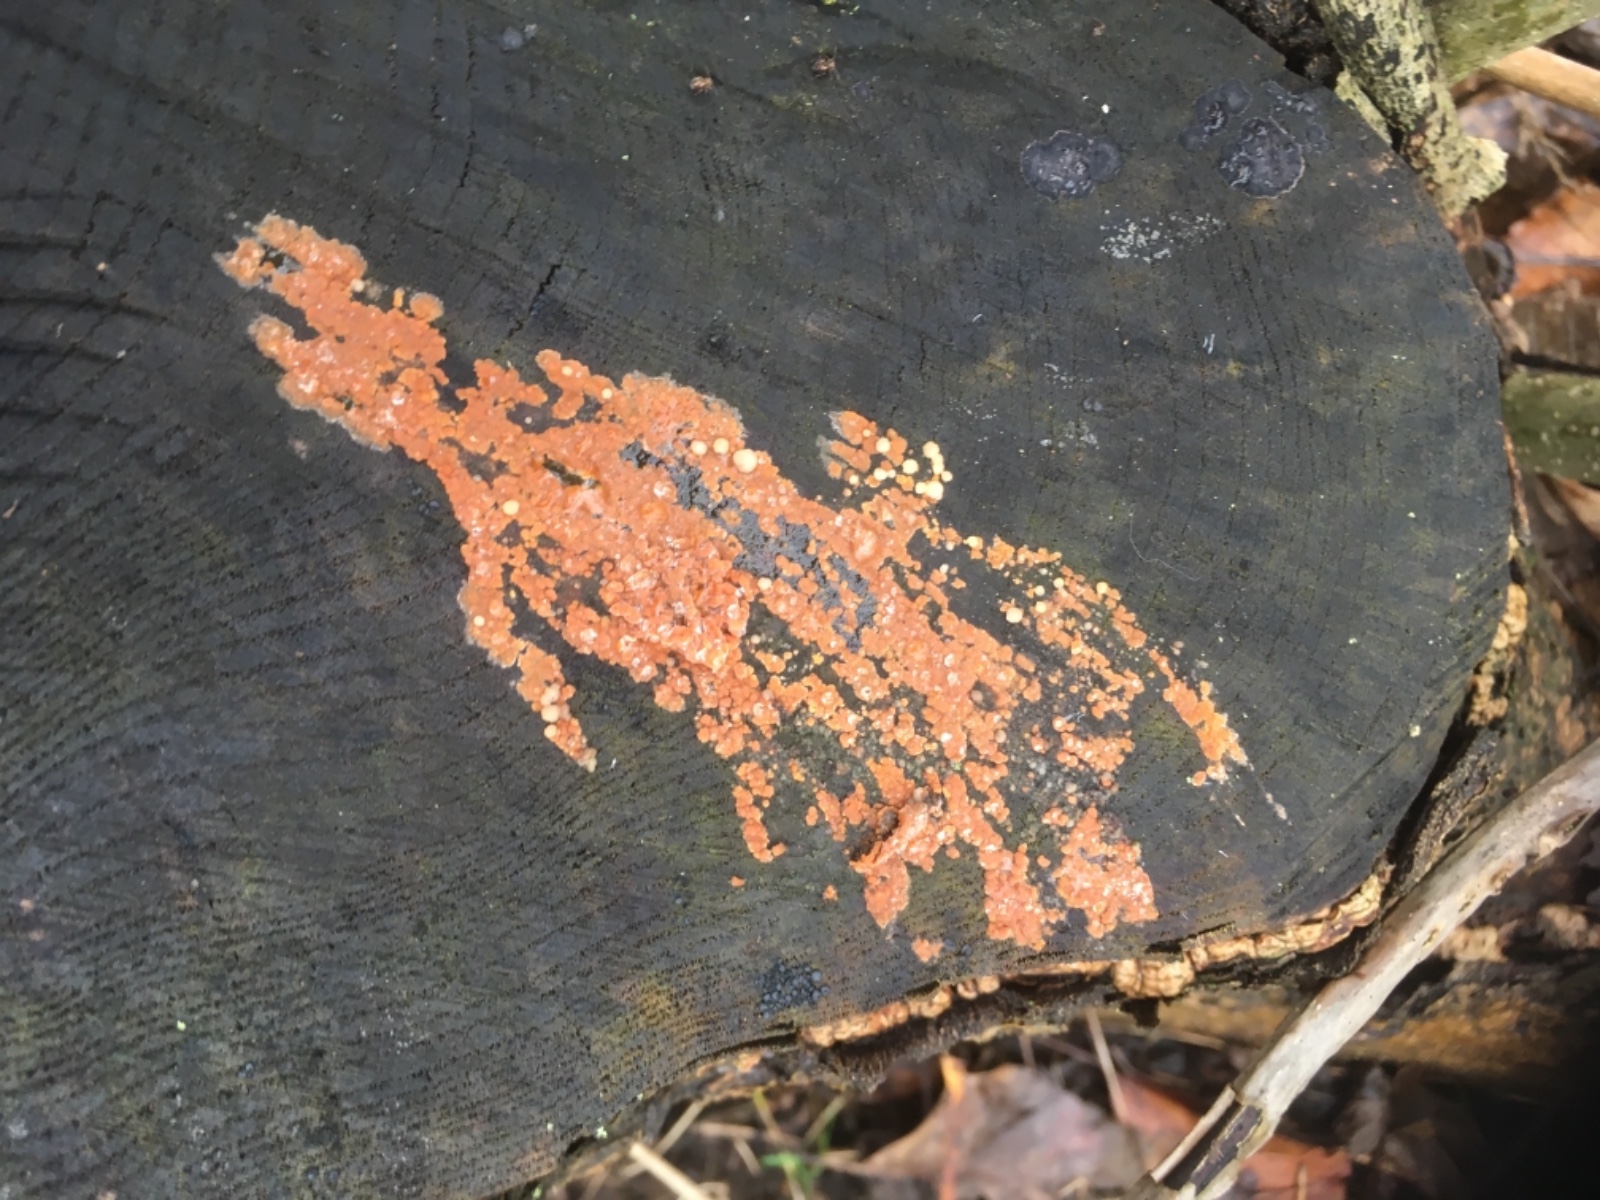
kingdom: Fungi
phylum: Basidiomycota
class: Agaricomycetes
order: Russulales
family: Peniophoraceae
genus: Peniophora
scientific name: Peniophora incarnata
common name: laksefarvet voksskind
